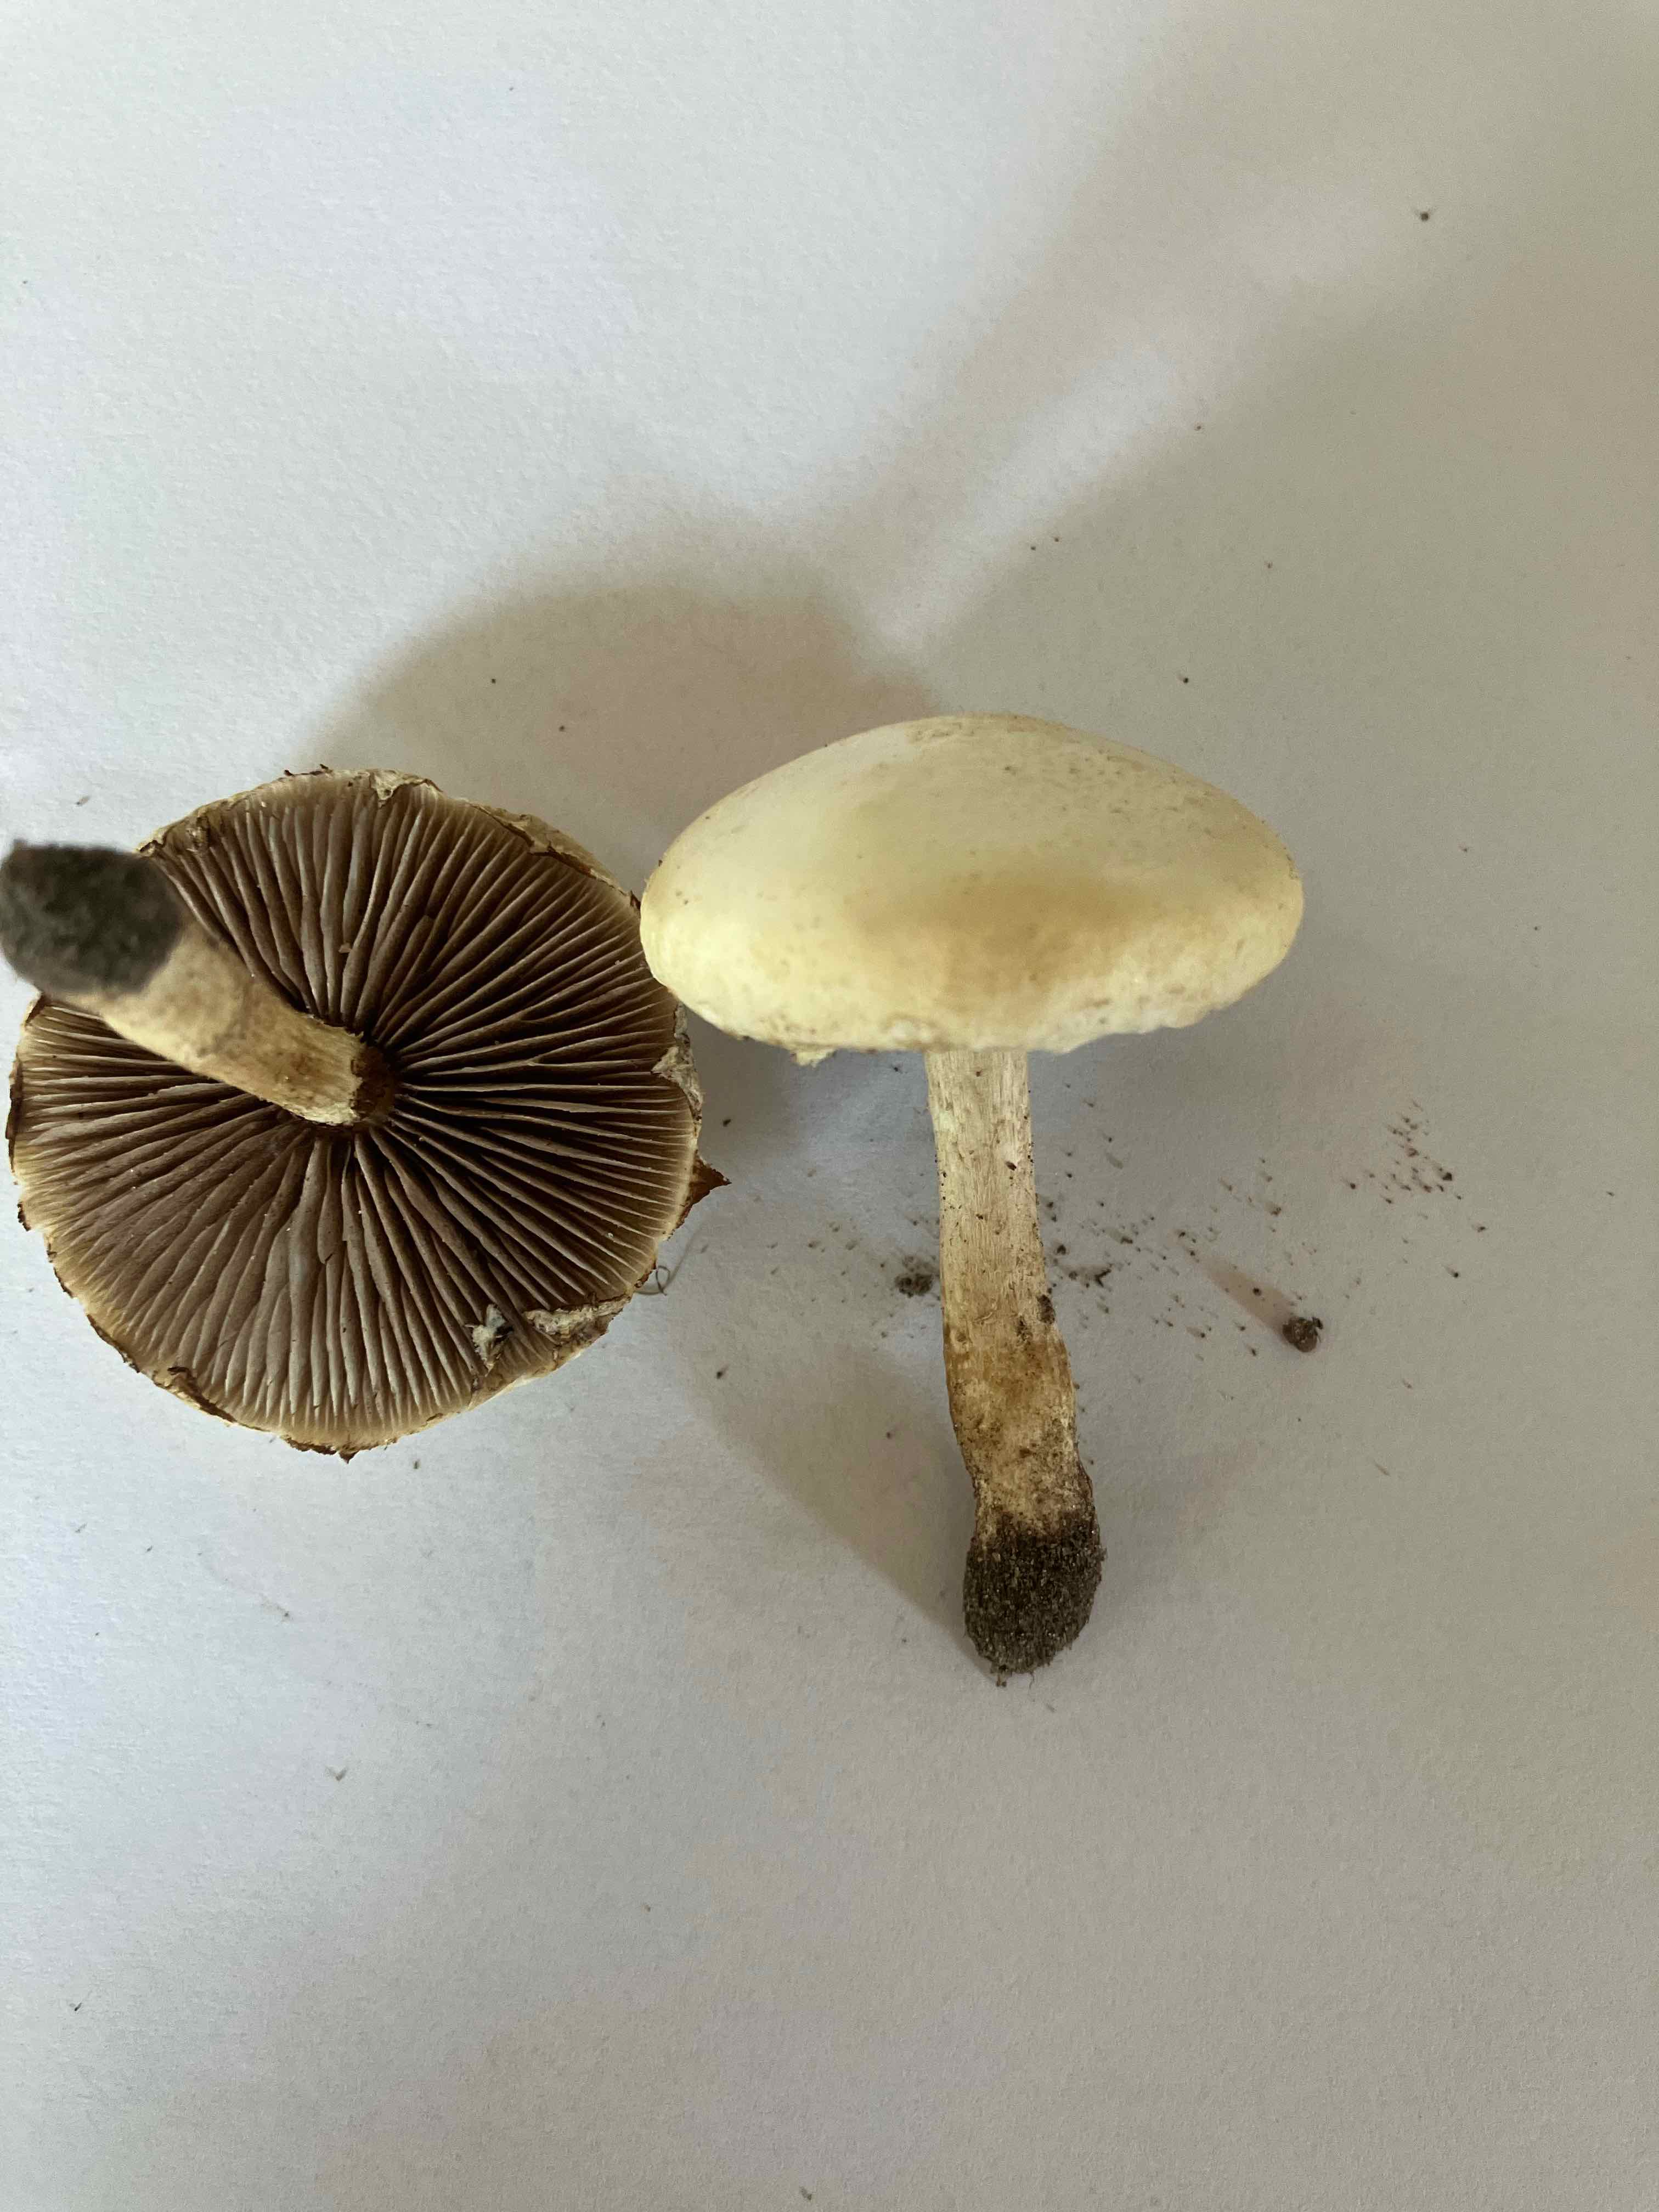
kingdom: Fungi
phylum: Basidiomycota
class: Agaricomycetes
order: Agaricales
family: Strophariaceae
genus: Agrocybe
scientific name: Agrocybe dura
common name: fastkødet agerhat
